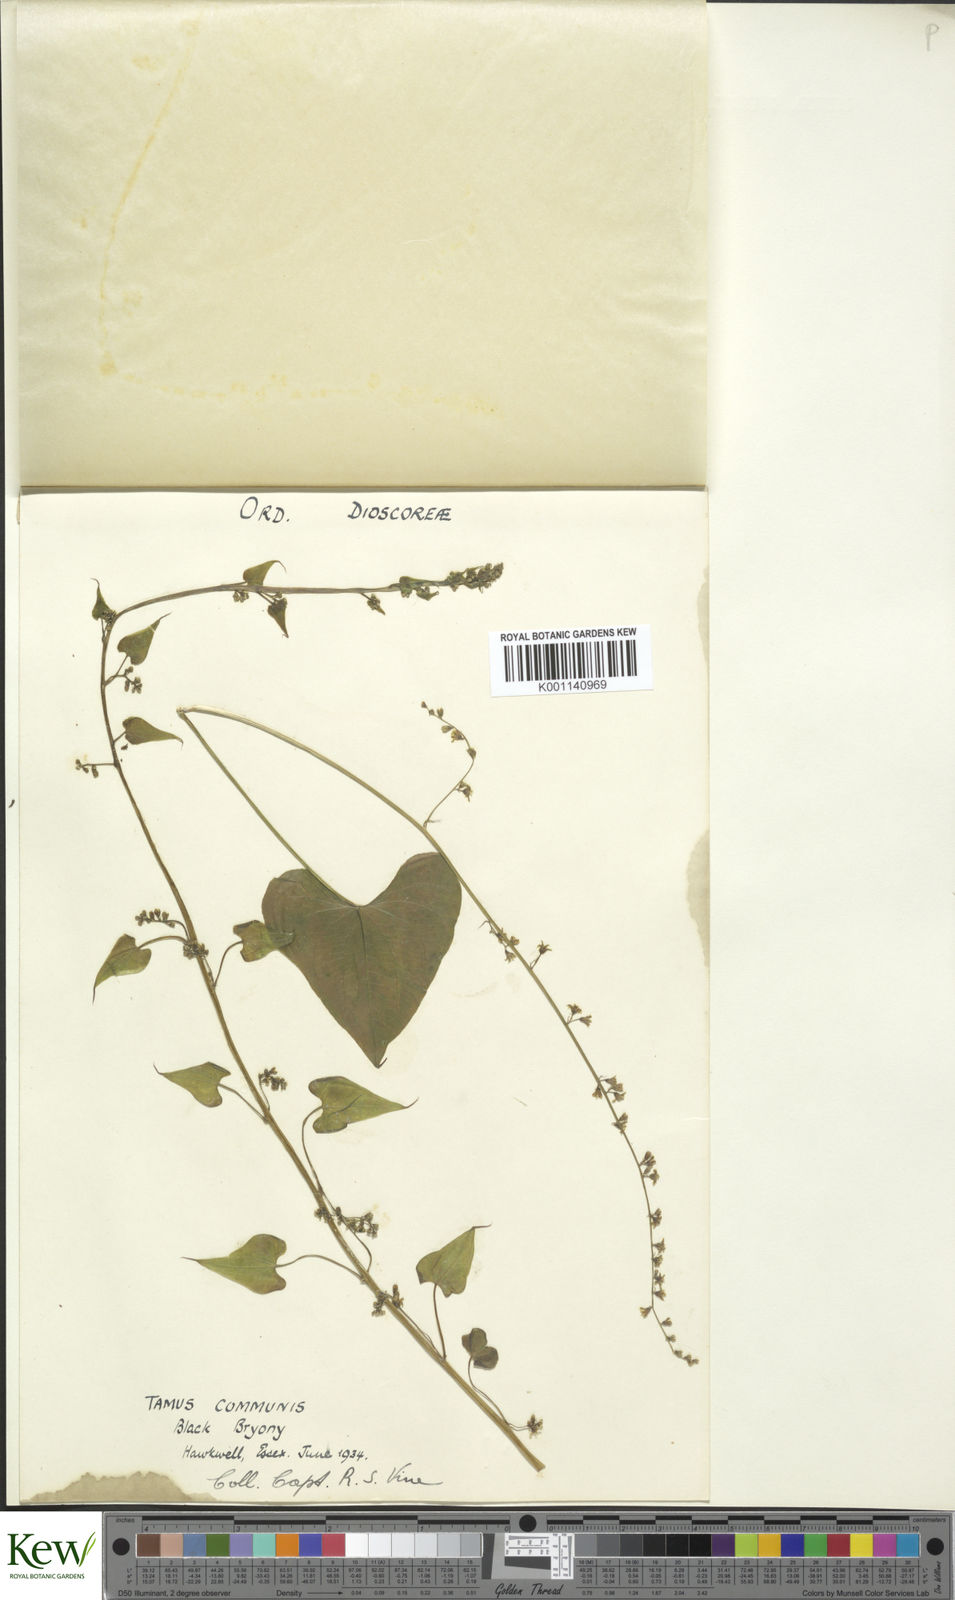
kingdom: Plantae
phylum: Tracheophyta
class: Liliopsida
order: Dioscoreales
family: Dioscoreaceae
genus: Dioscorea
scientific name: Dioscorea communis
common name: Black-bindweed
